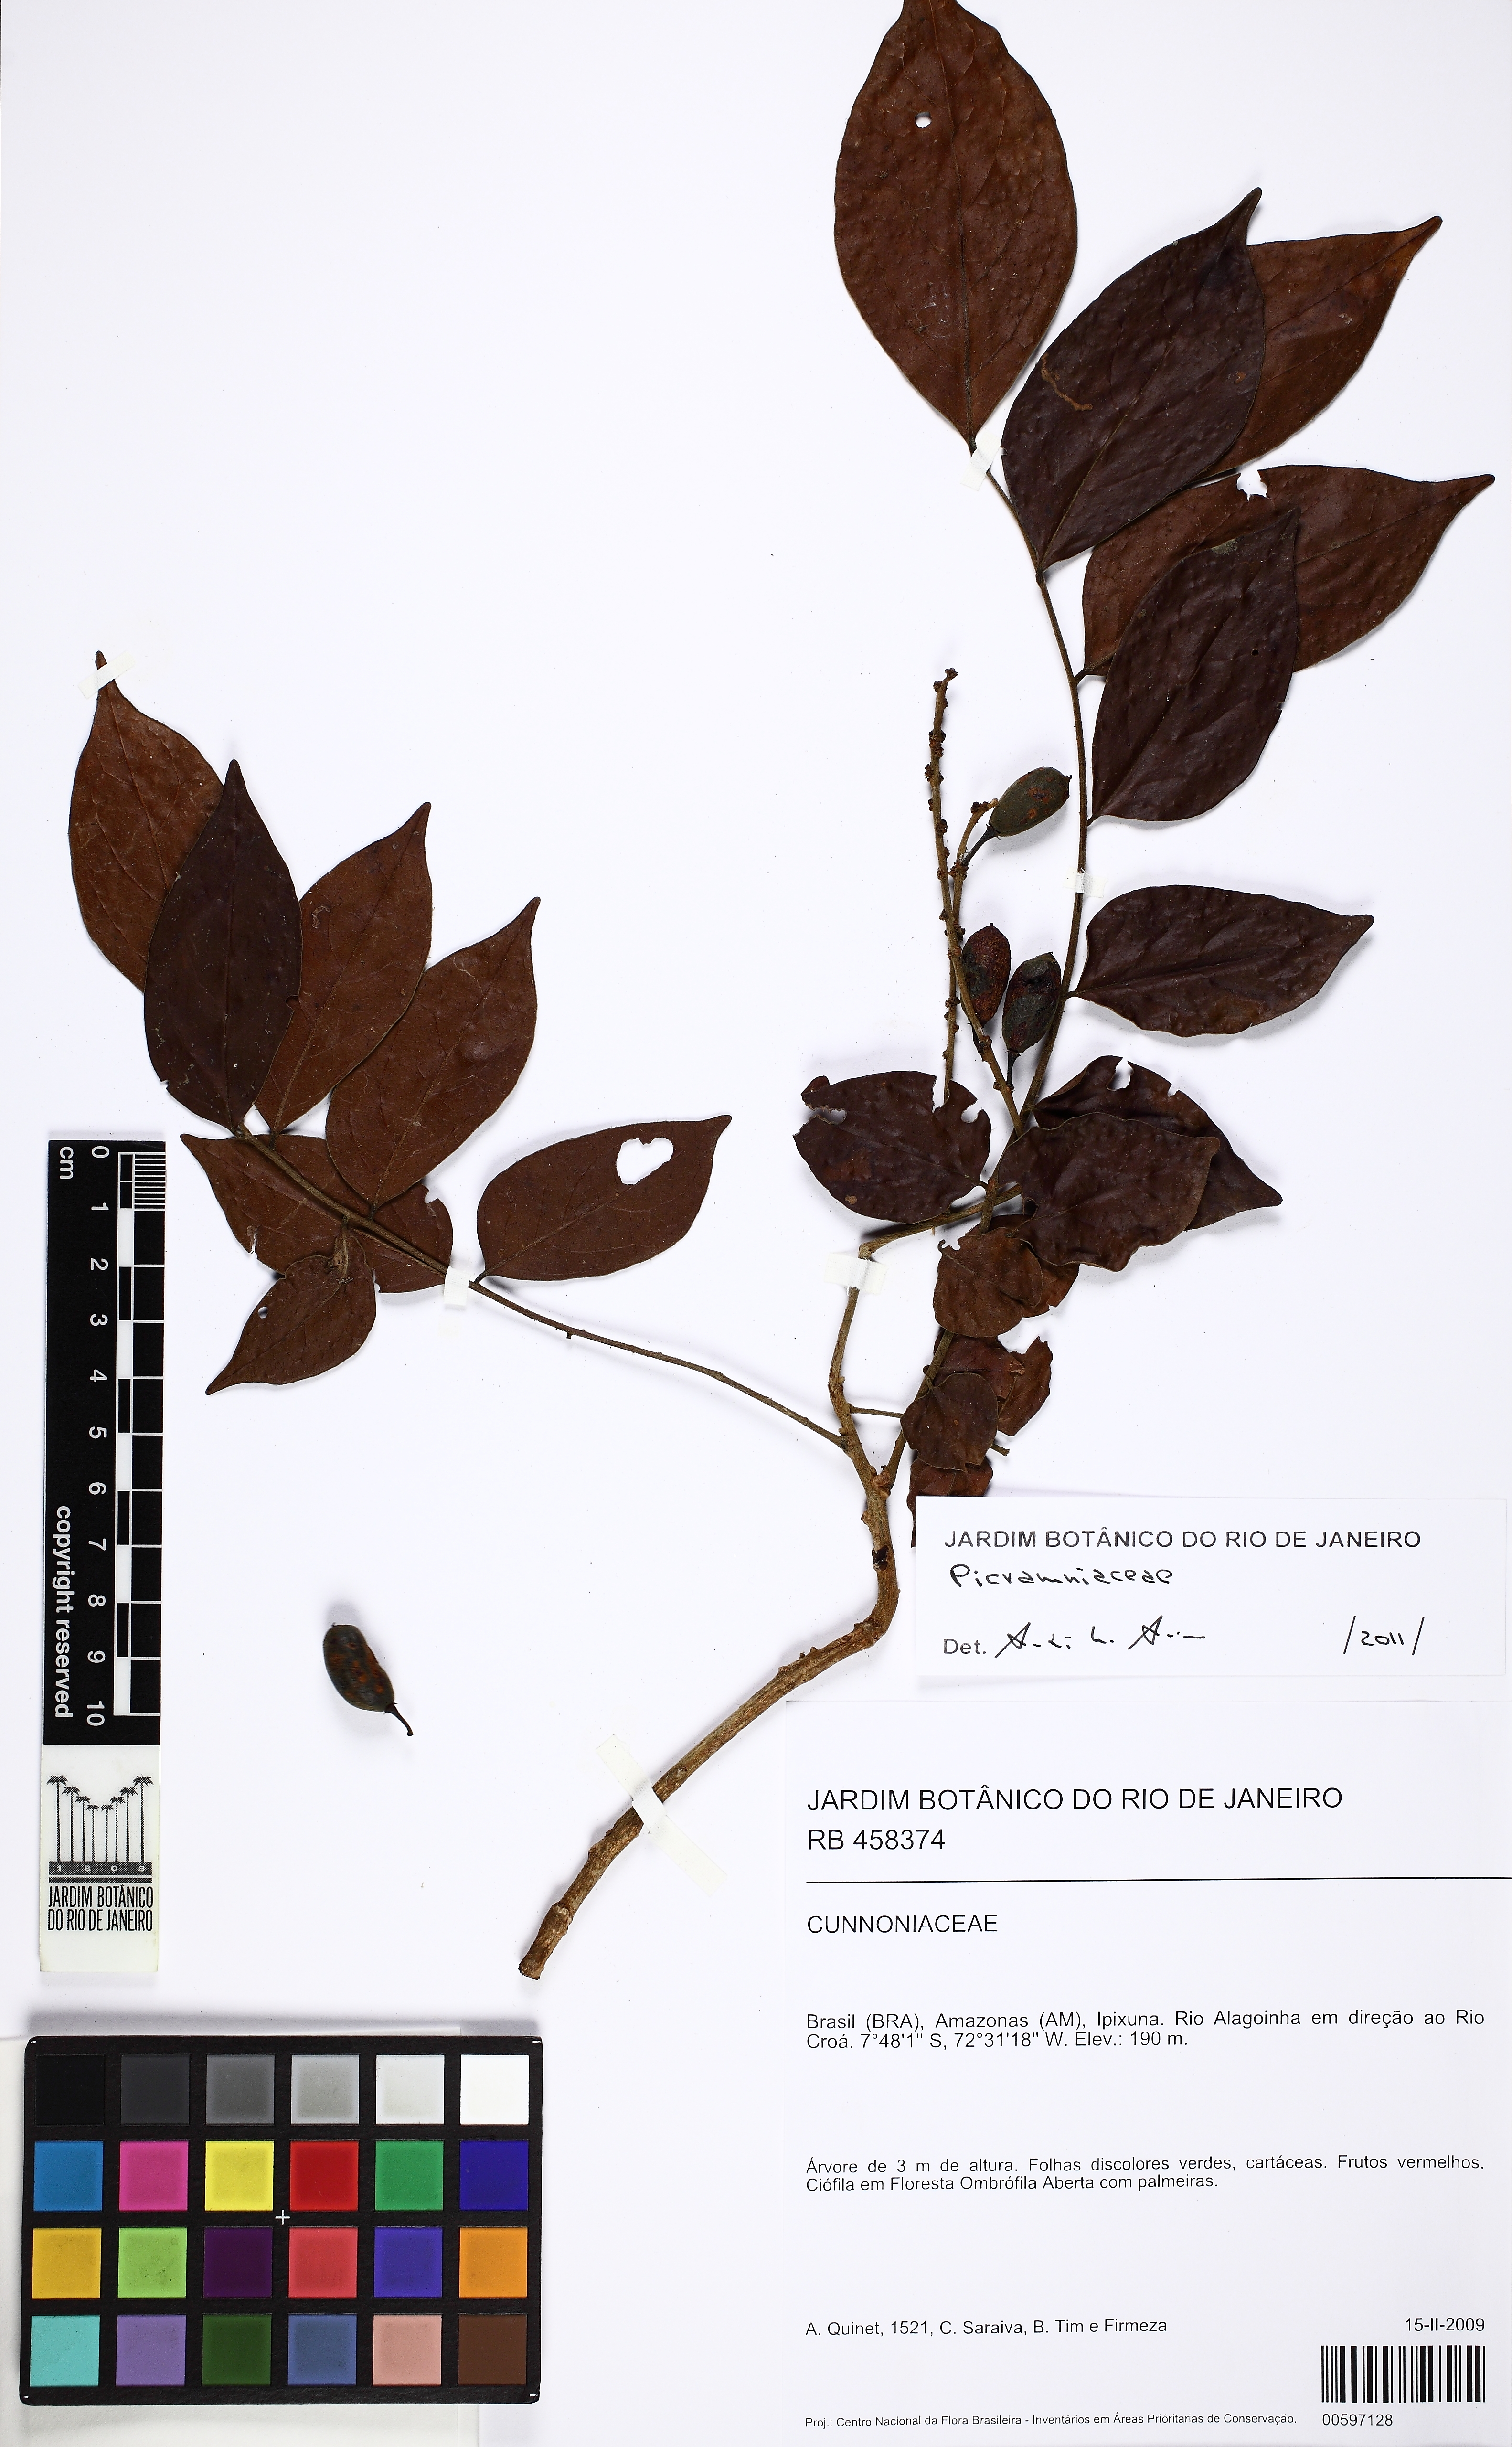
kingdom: Plantae
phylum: Tracheophyta
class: Magnoliopsida
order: Picramniales
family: Picramniaceae
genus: Picramnia
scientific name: Picramnia spruceana
